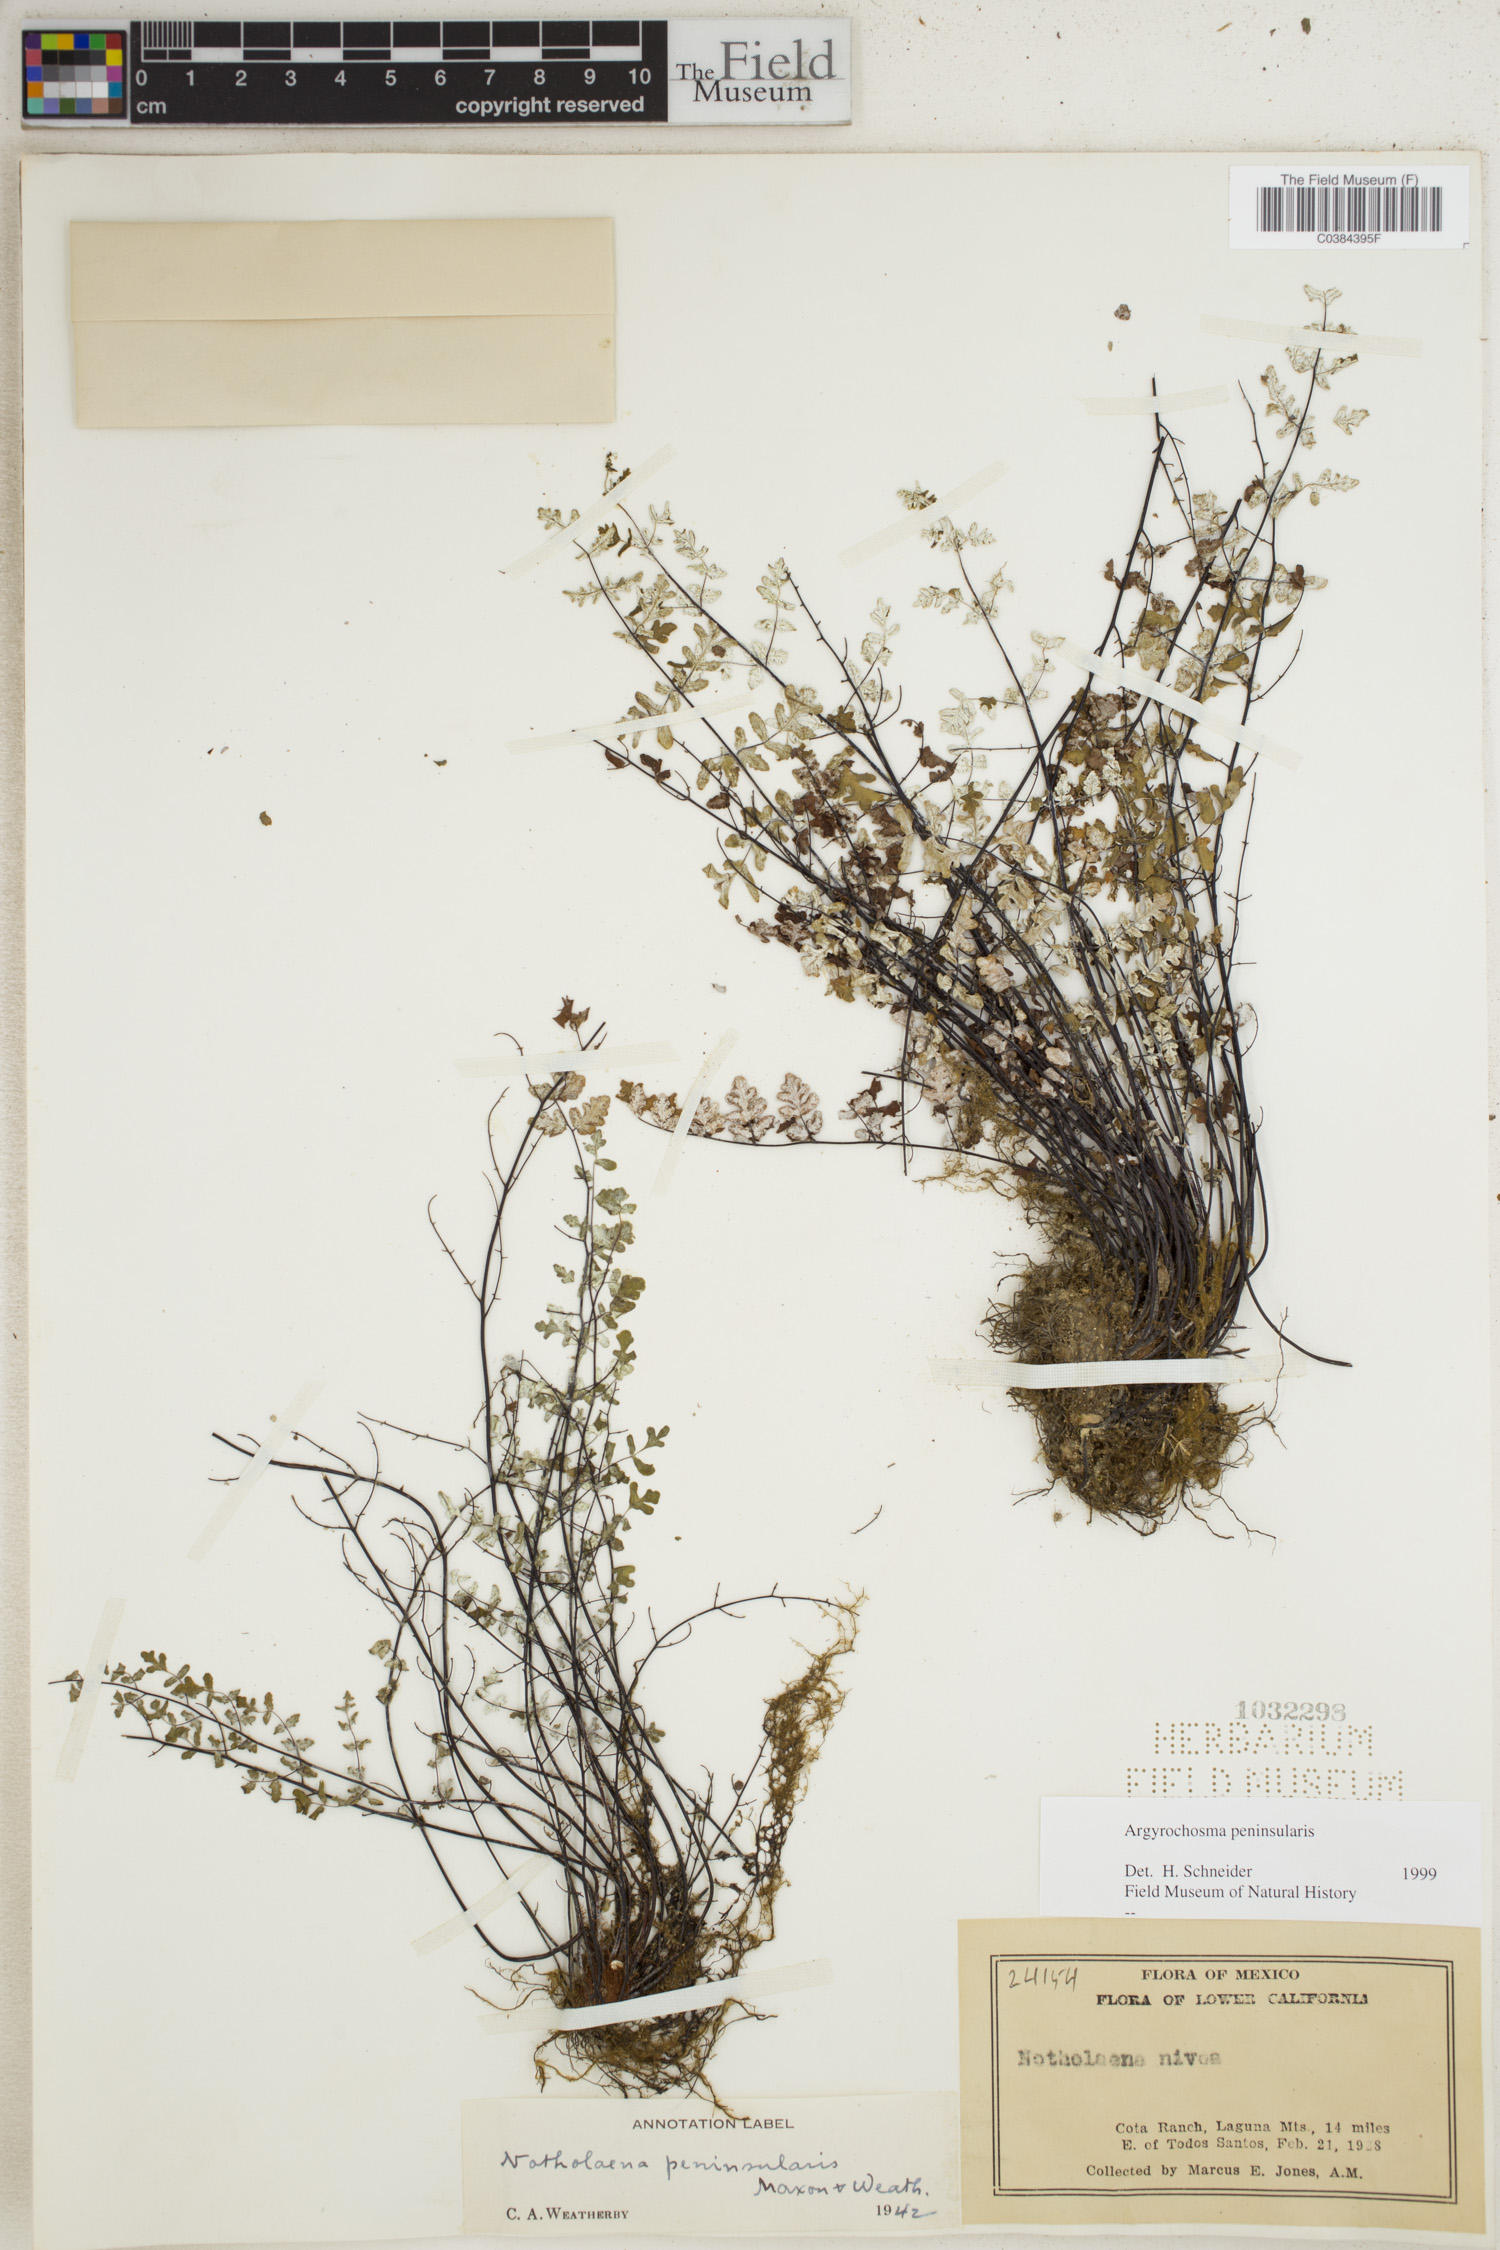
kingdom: Plantae
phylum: Tracheophyta
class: Polypodiopsida
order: Polypodiales
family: Pteridaceae
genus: Argyrochosma
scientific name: Argyrochosma peninsularis
